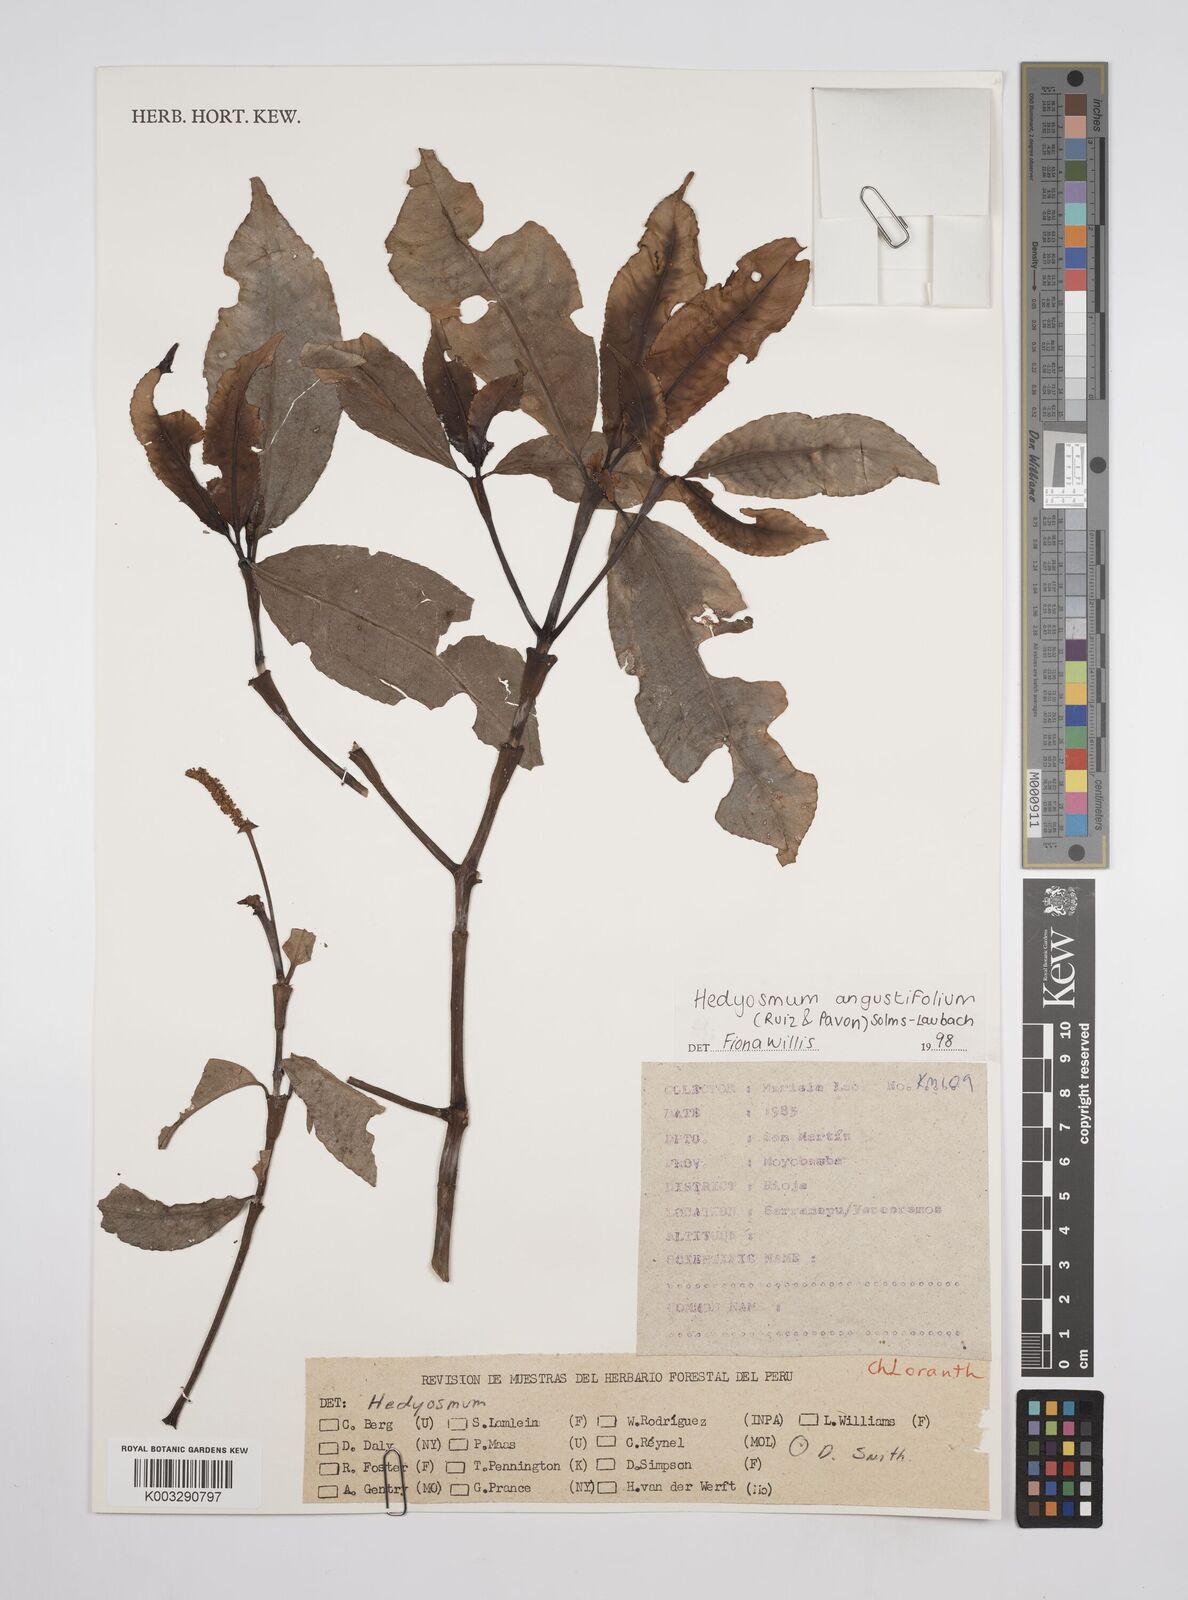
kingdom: Plantae
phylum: Tracheophyta
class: Magnoliopsida
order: Chloranthales
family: Chloranthaceae
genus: Hedyosmum
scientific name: Hedyosmum angustifolium
